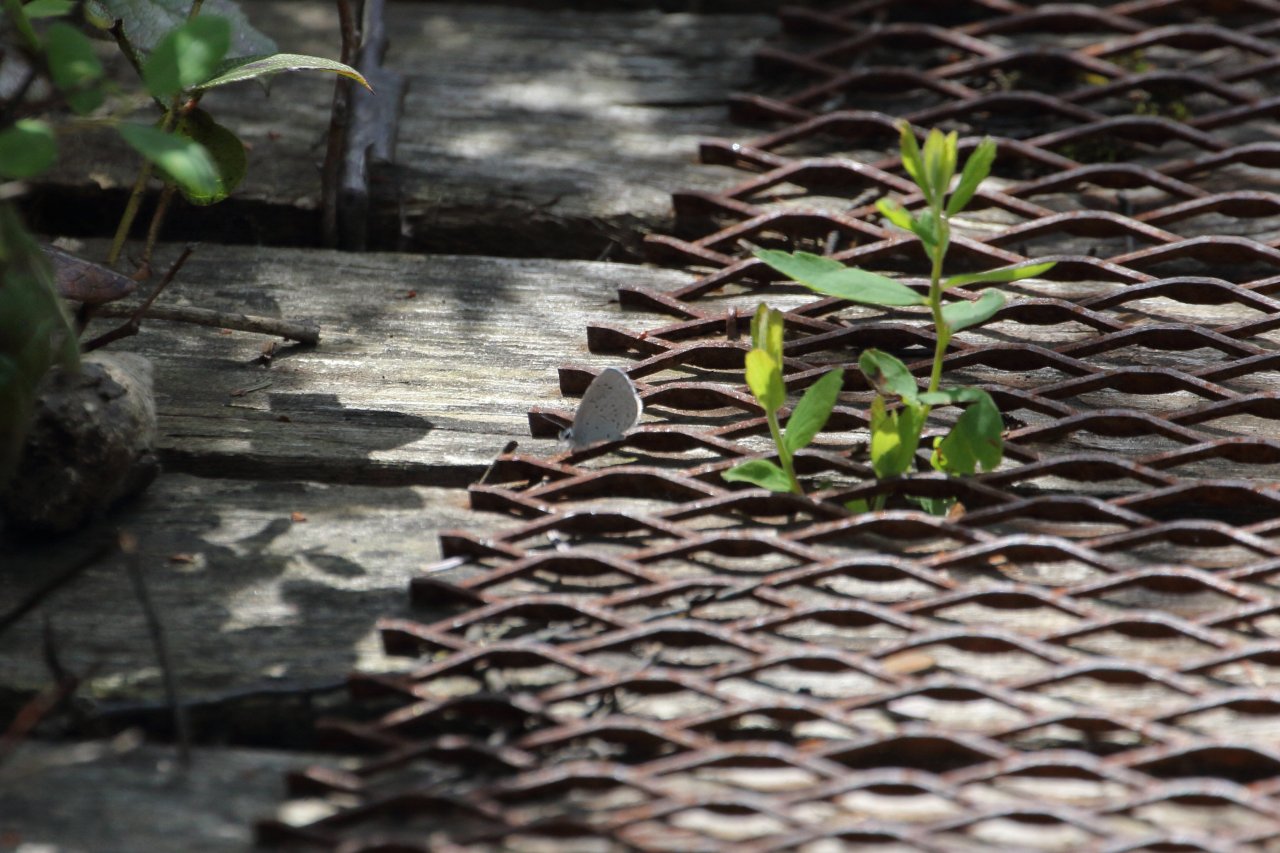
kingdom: Animalia
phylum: Arthropoda
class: Insecta
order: Lepidoptera
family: Lycaenidae
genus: Celastrina
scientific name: Celastrina ladon
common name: Echo Azure
